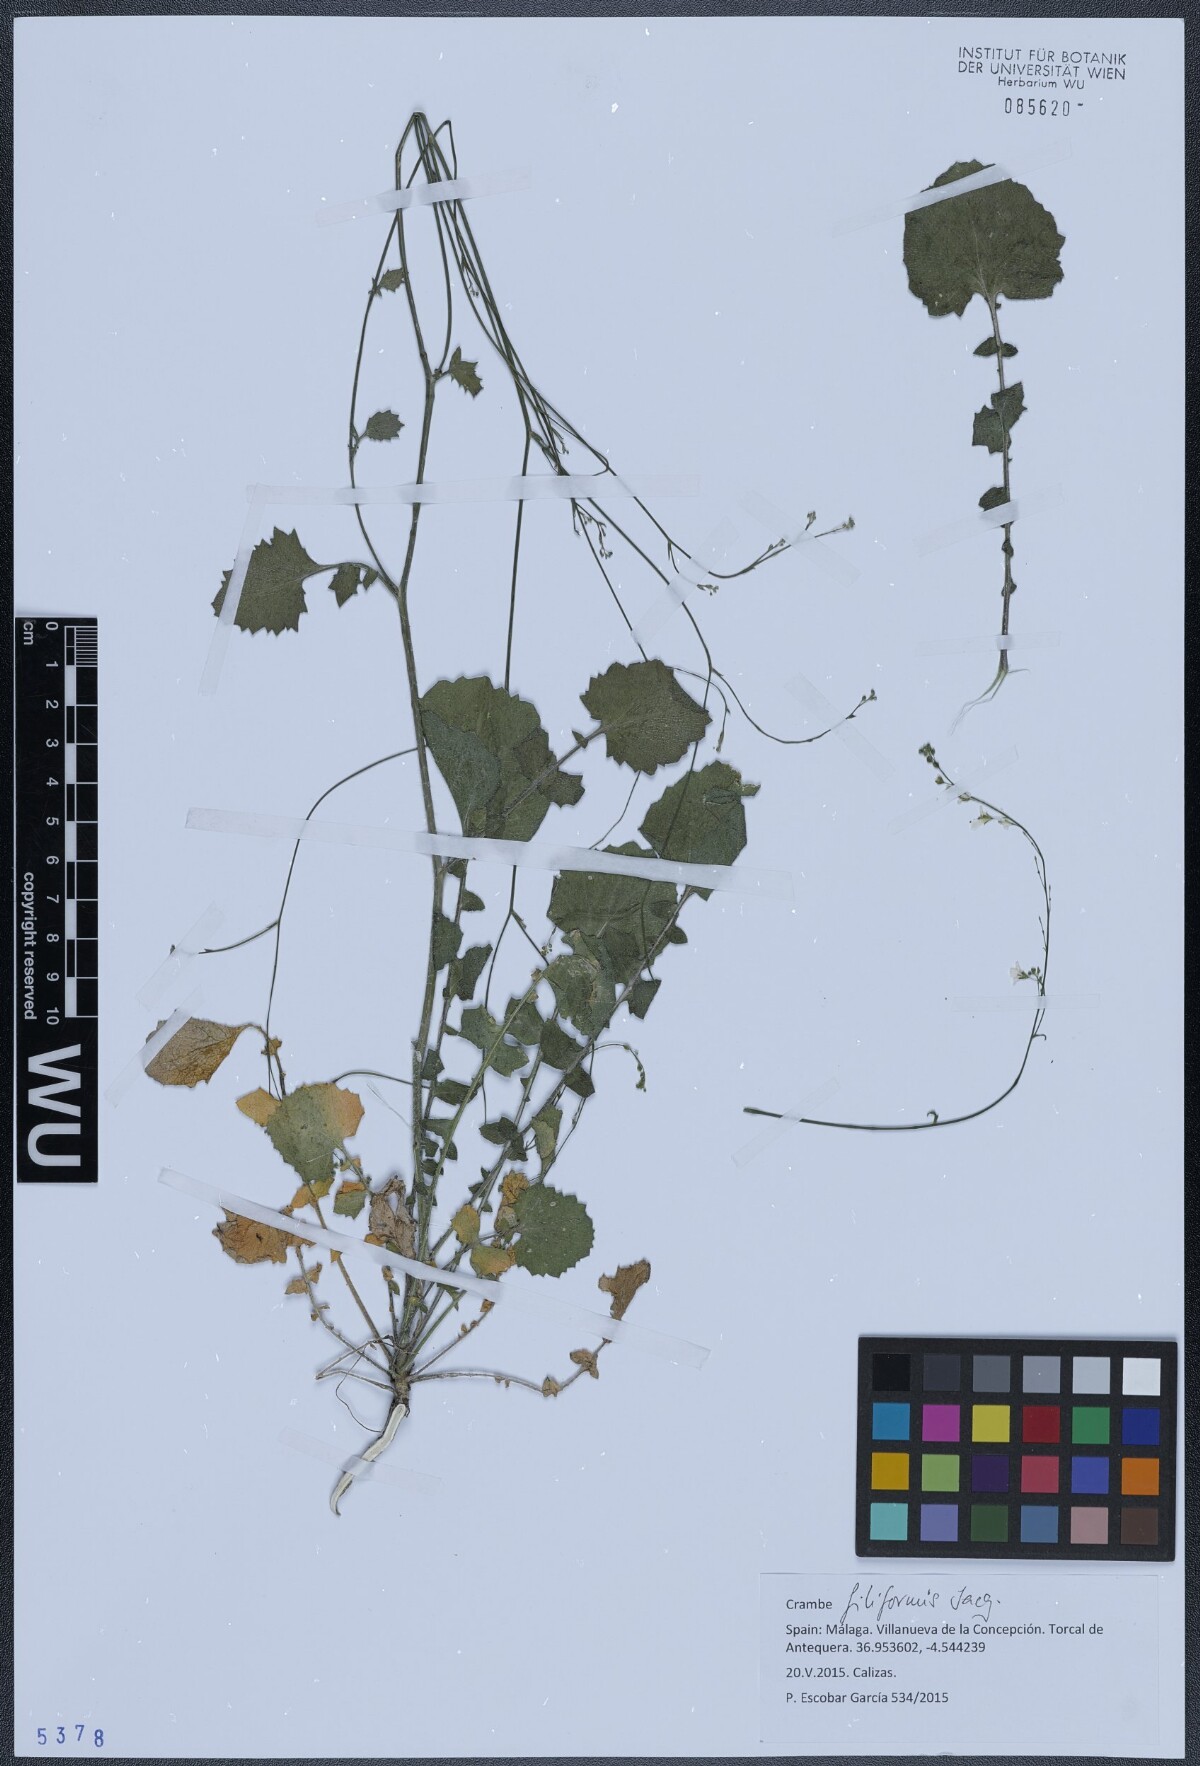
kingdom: Plantae
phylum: Tracheophyta
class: Magnoliopsida
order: Brassicales
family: Brassicaceae
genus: Crambe
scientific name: Crambe filiformis
